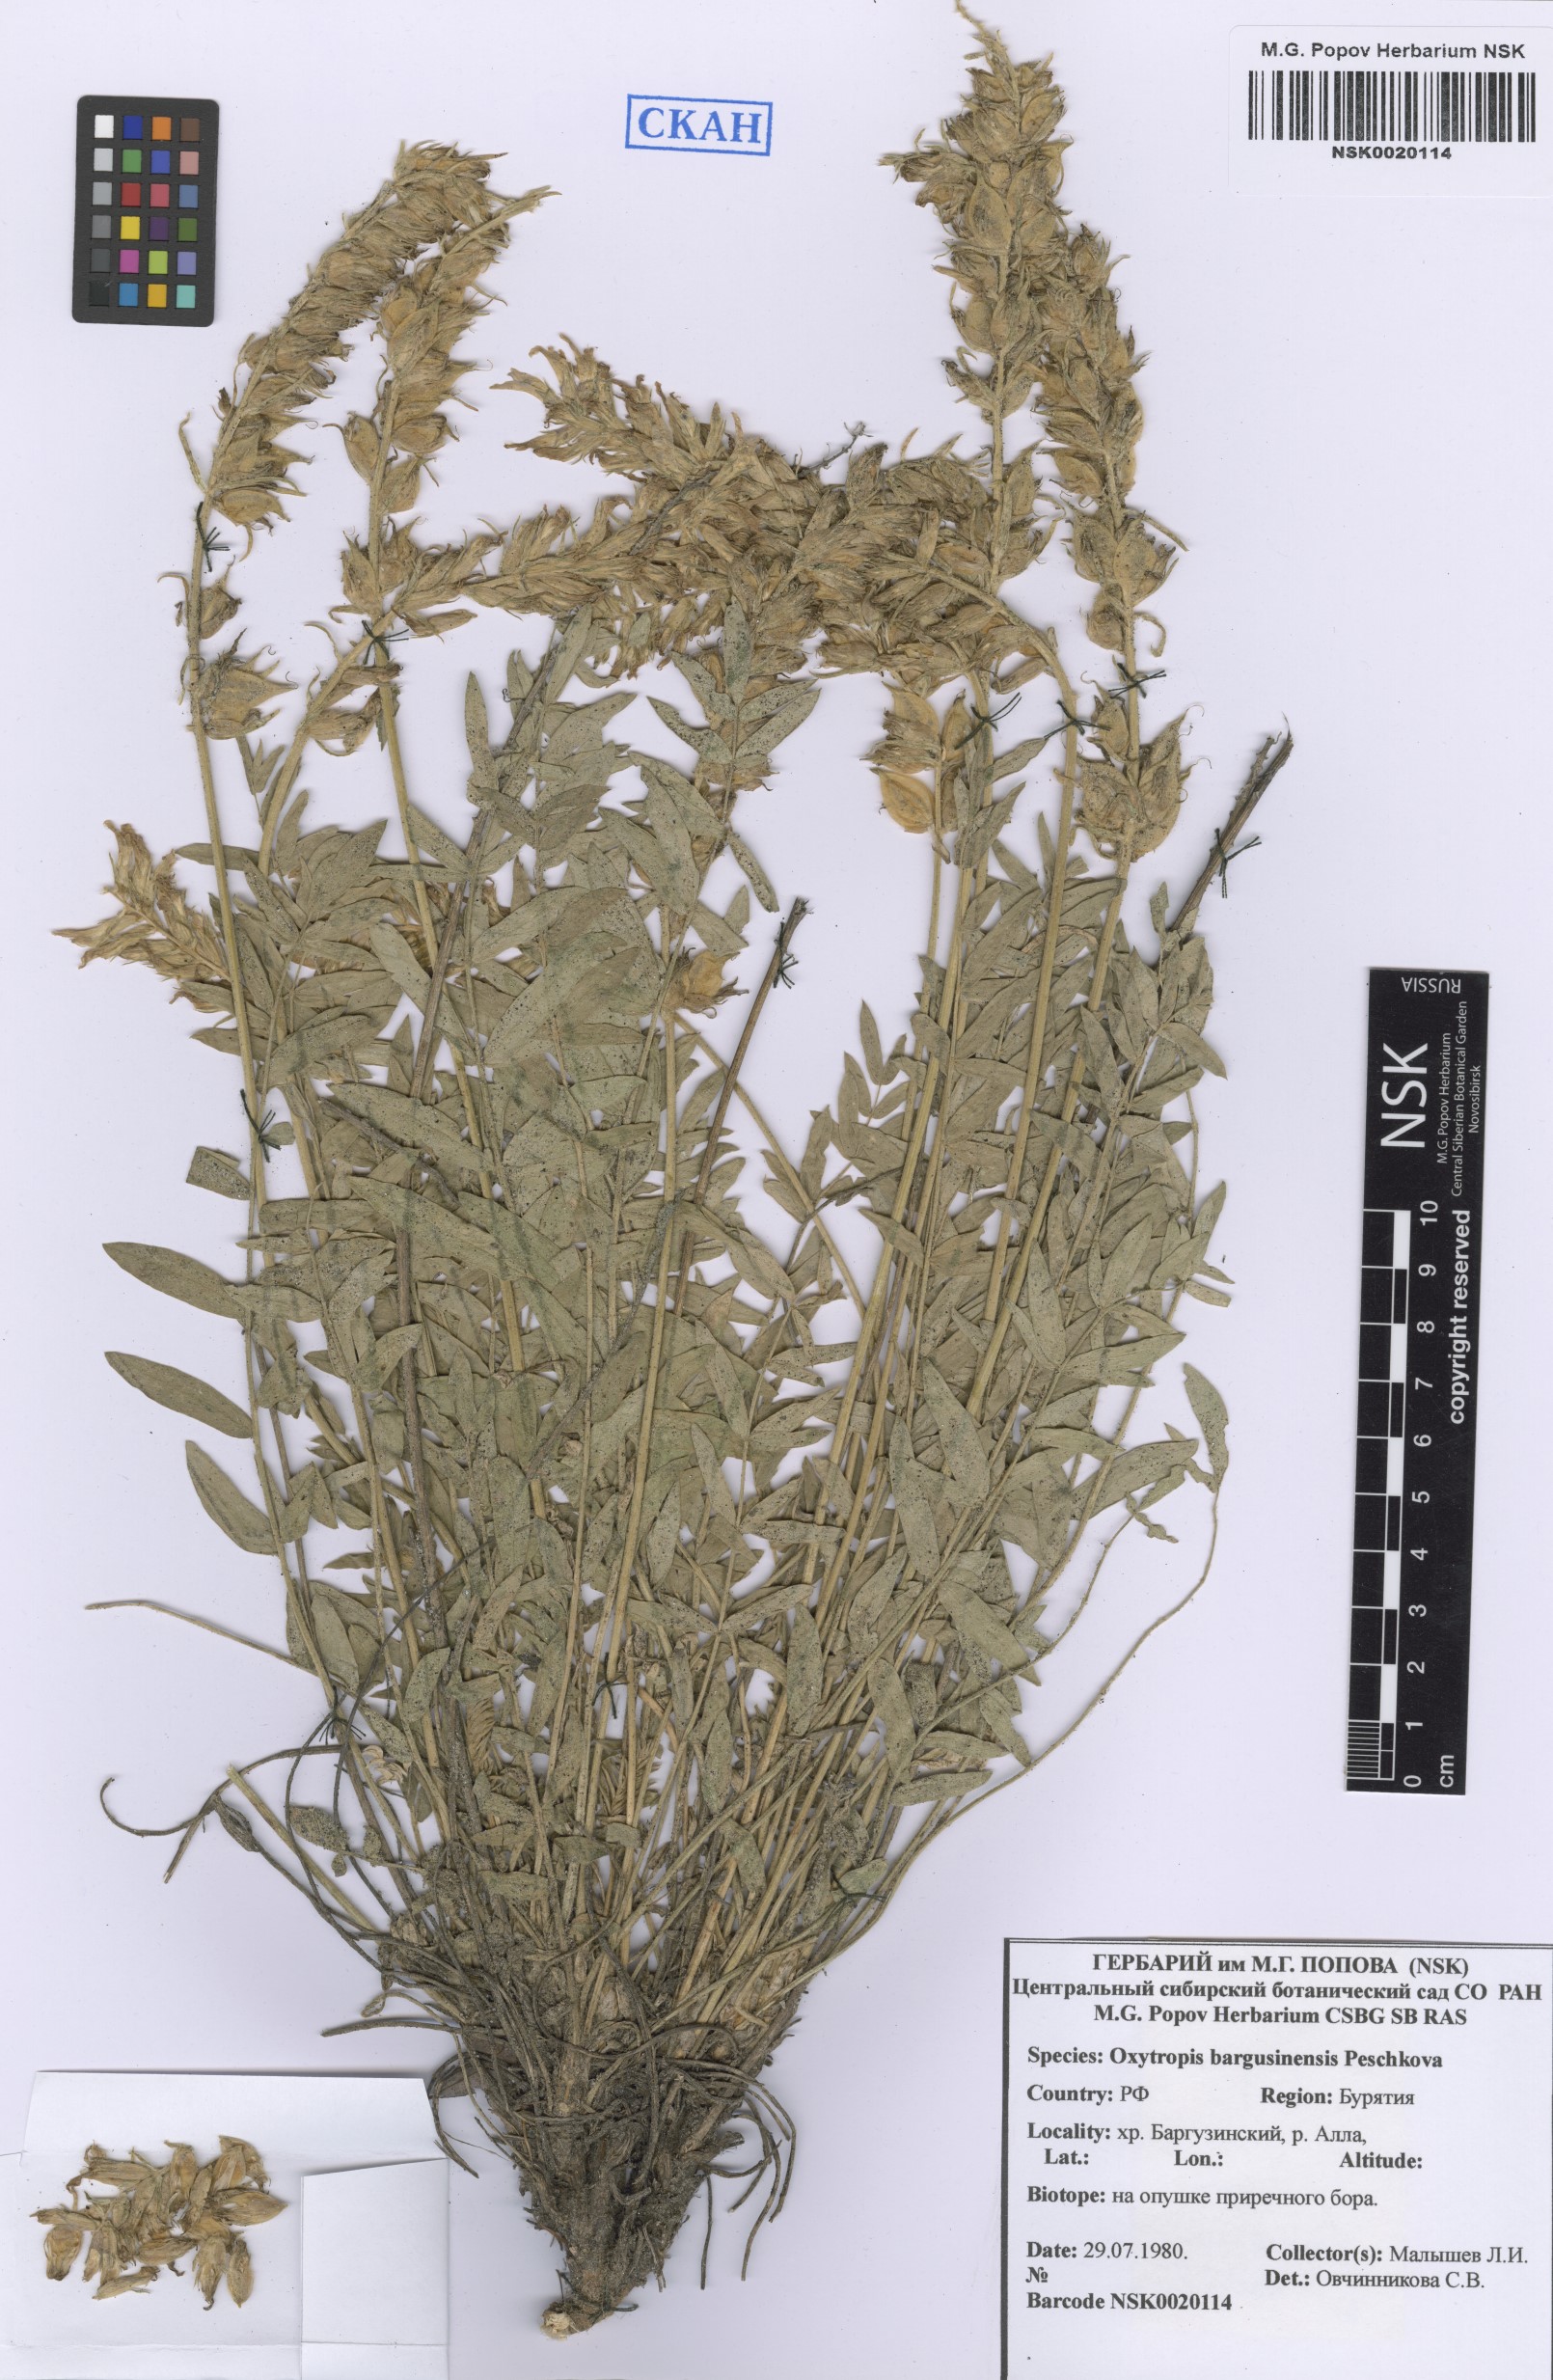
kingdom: Plantae
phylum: Tracheophyta
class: Magnoliopsida
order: Fabales
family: Fabaceae
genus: Oxytropis
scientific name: Oxytropis bargusinensis
